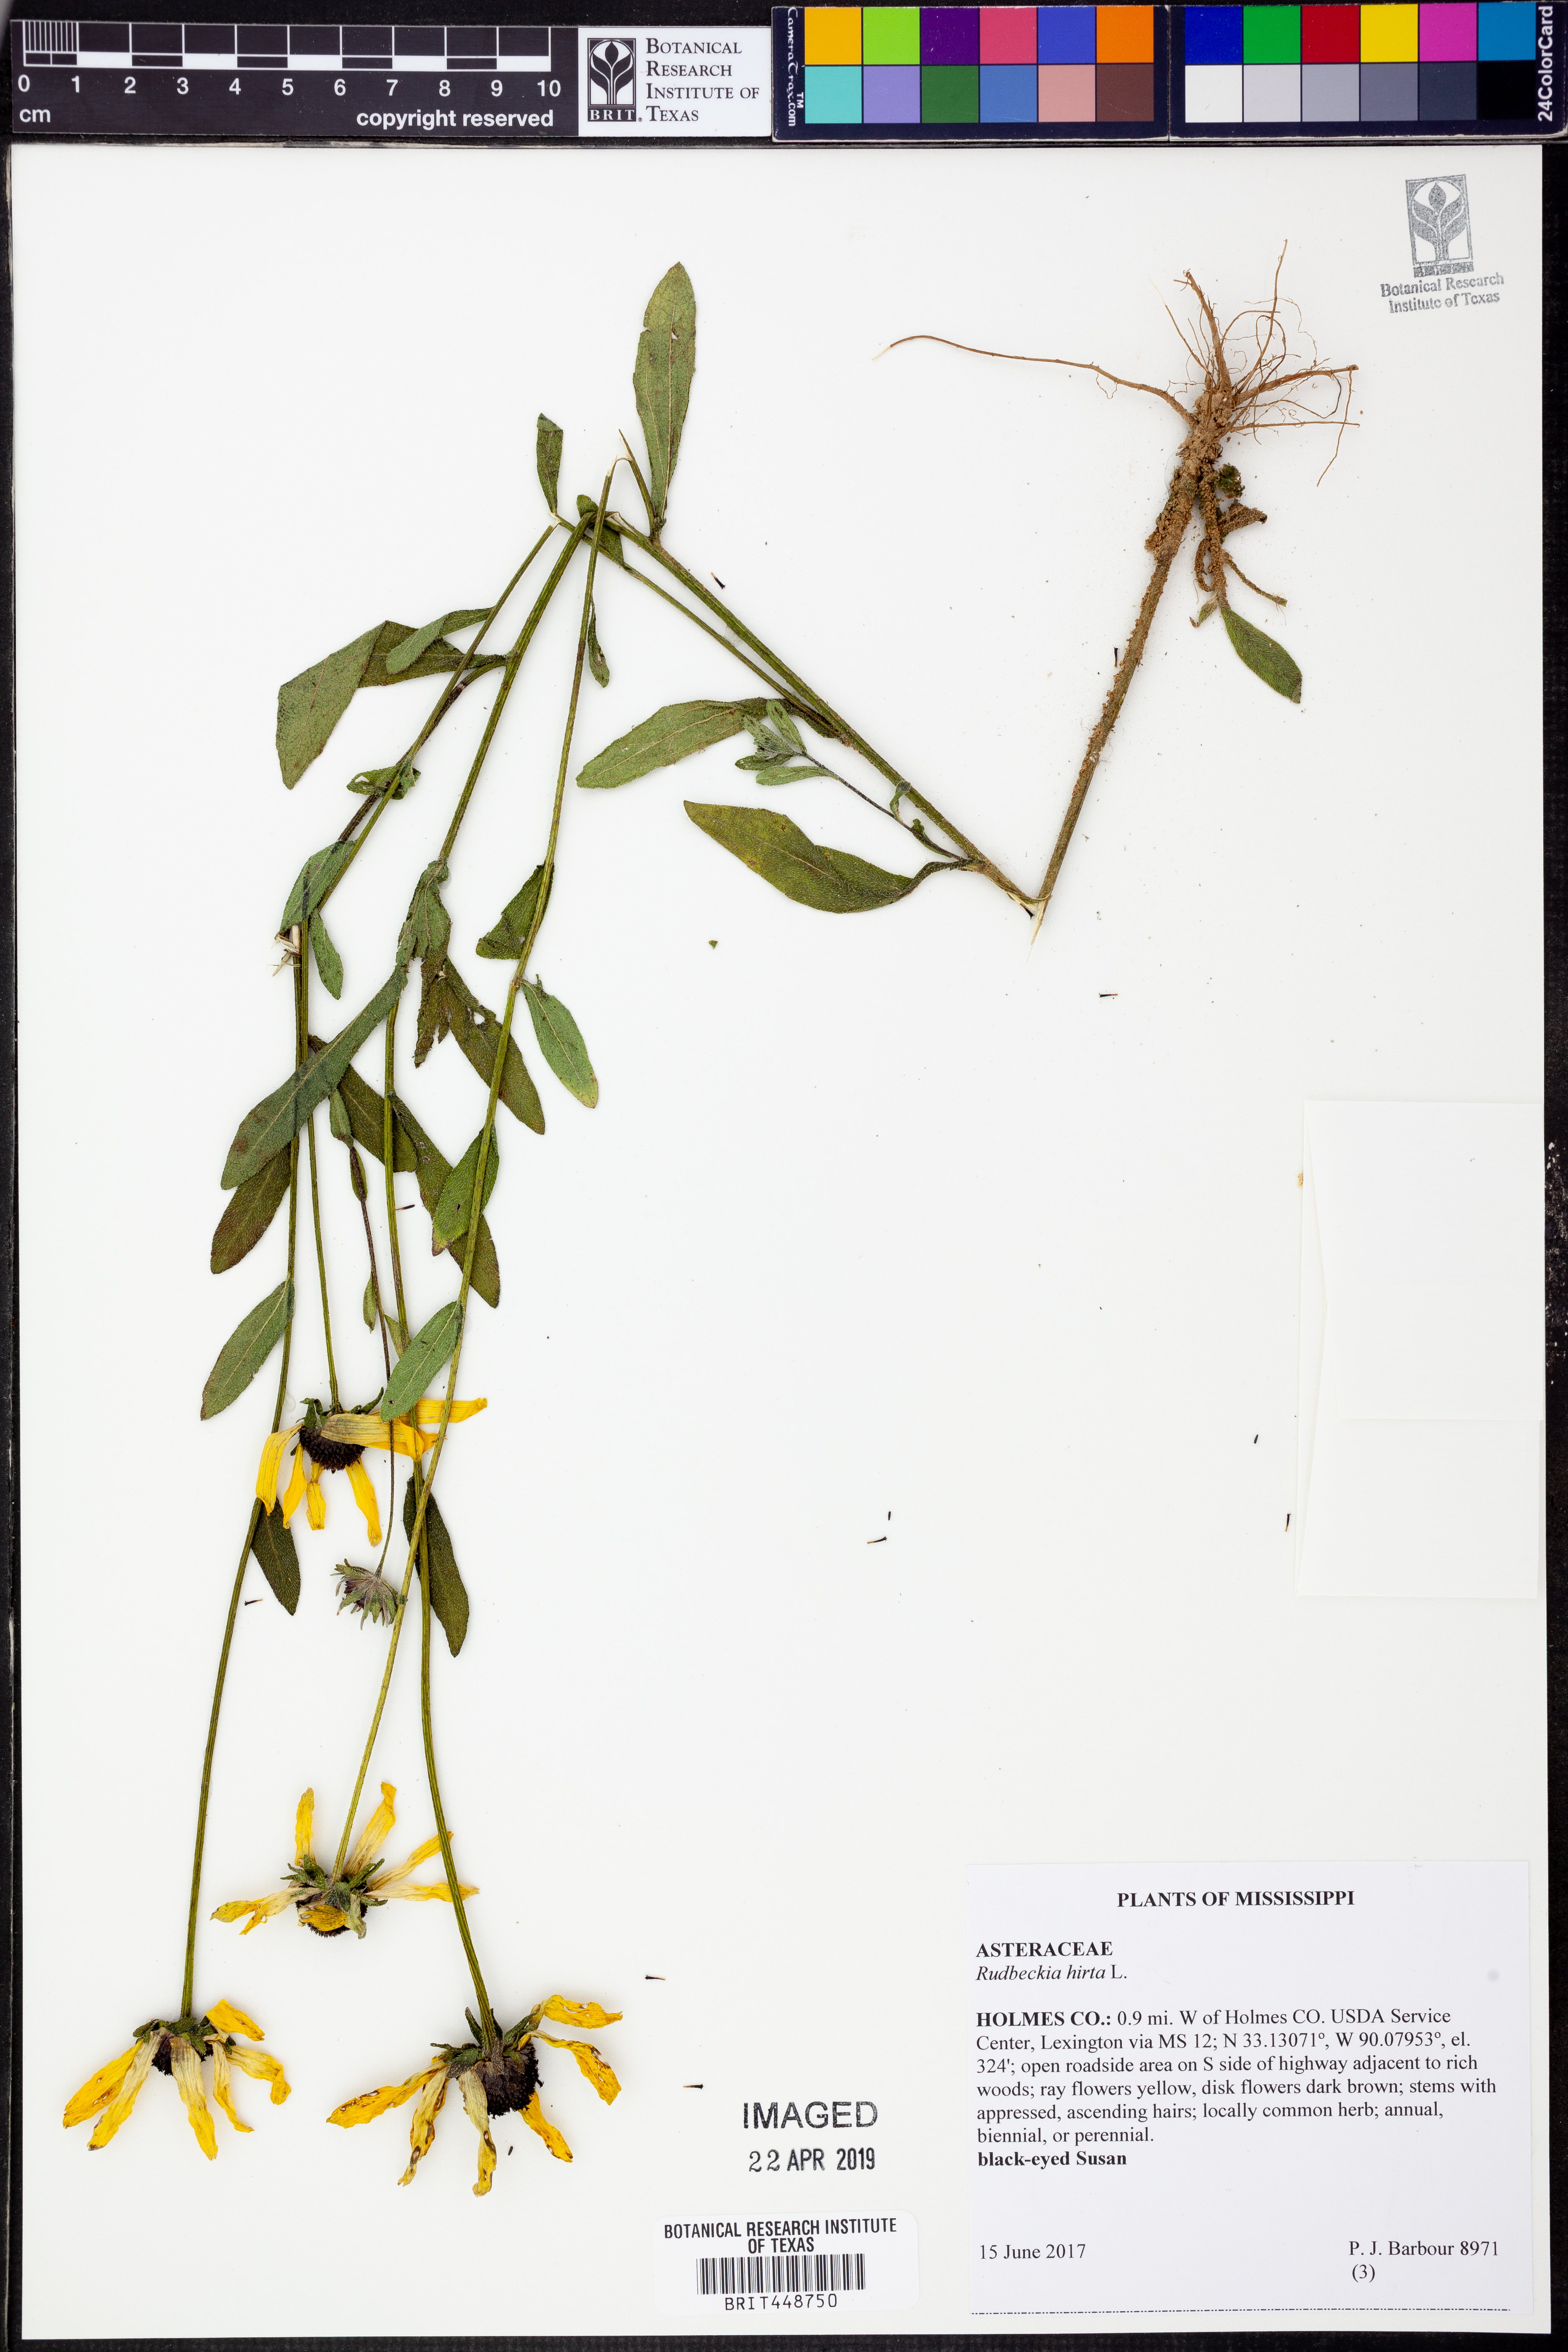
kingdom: Plantae
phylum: Tracheophyta
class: Magnoliopsida
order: Asterales
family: Asteraceae
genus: Rudbeckia
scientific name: Rudbeckia hirta
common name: Black-eyed-susan
